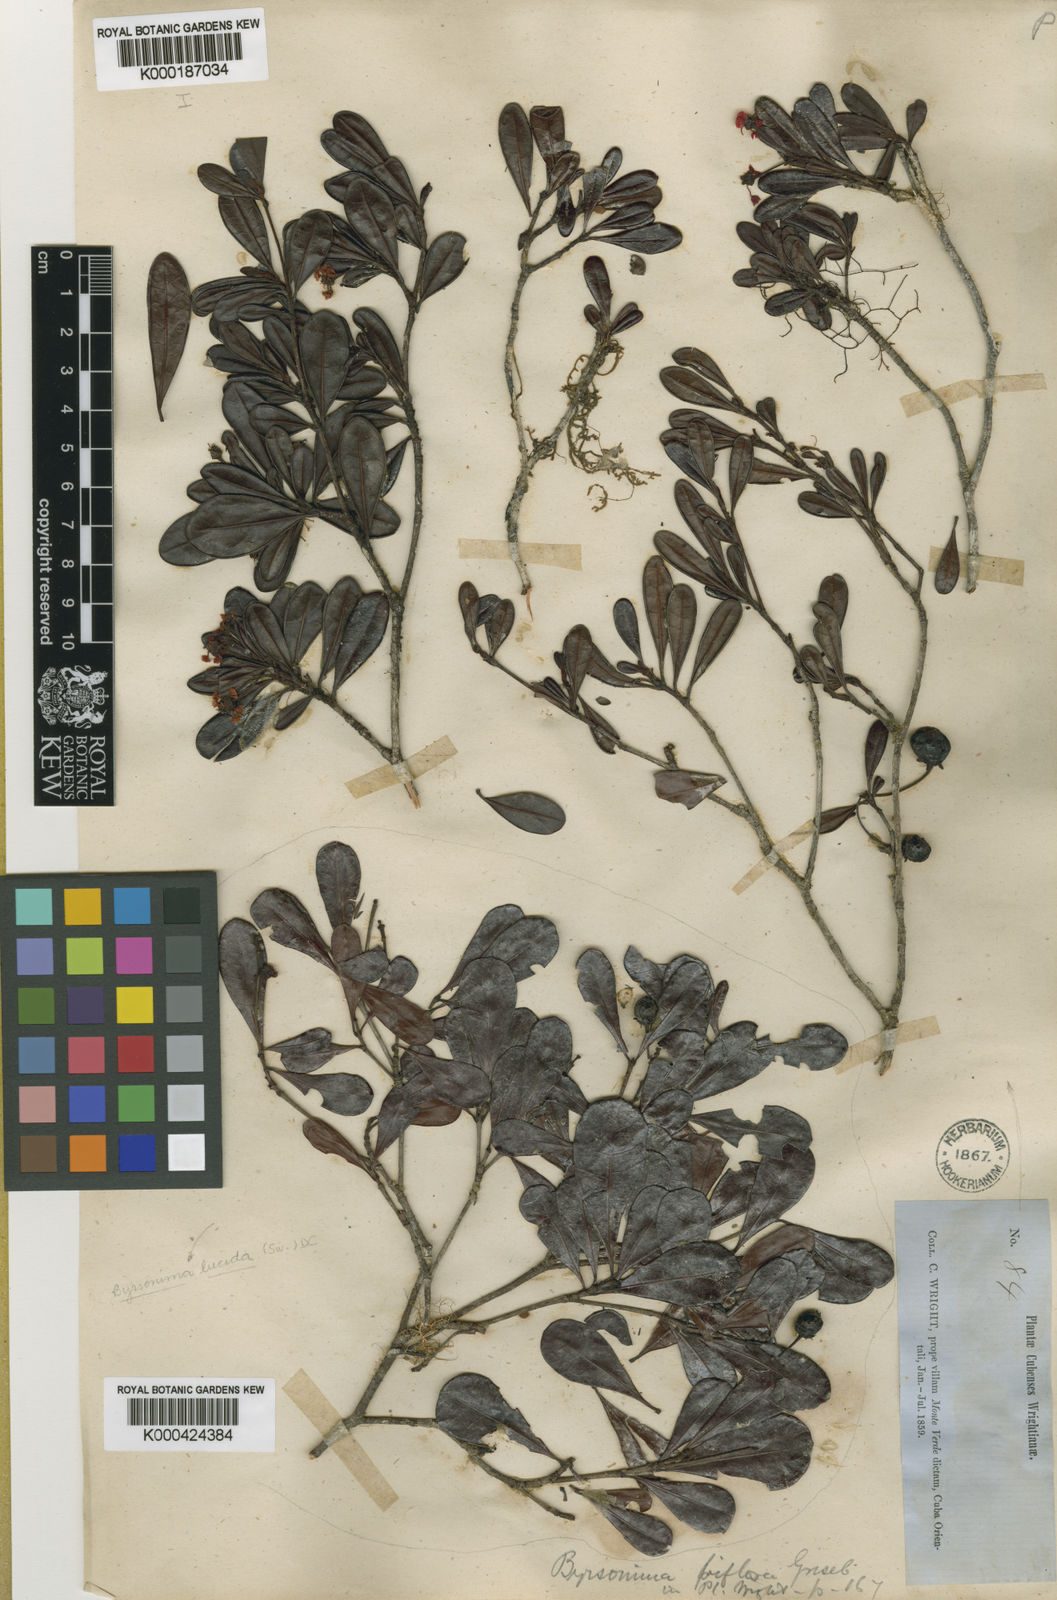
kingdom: Plantae
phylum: Tracheophyta
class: Magnoliopsida
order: Malpighiales
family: Malpighiaceae
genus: Byrsonima
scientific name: Byrsonima lucida
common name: Clam-cherry
